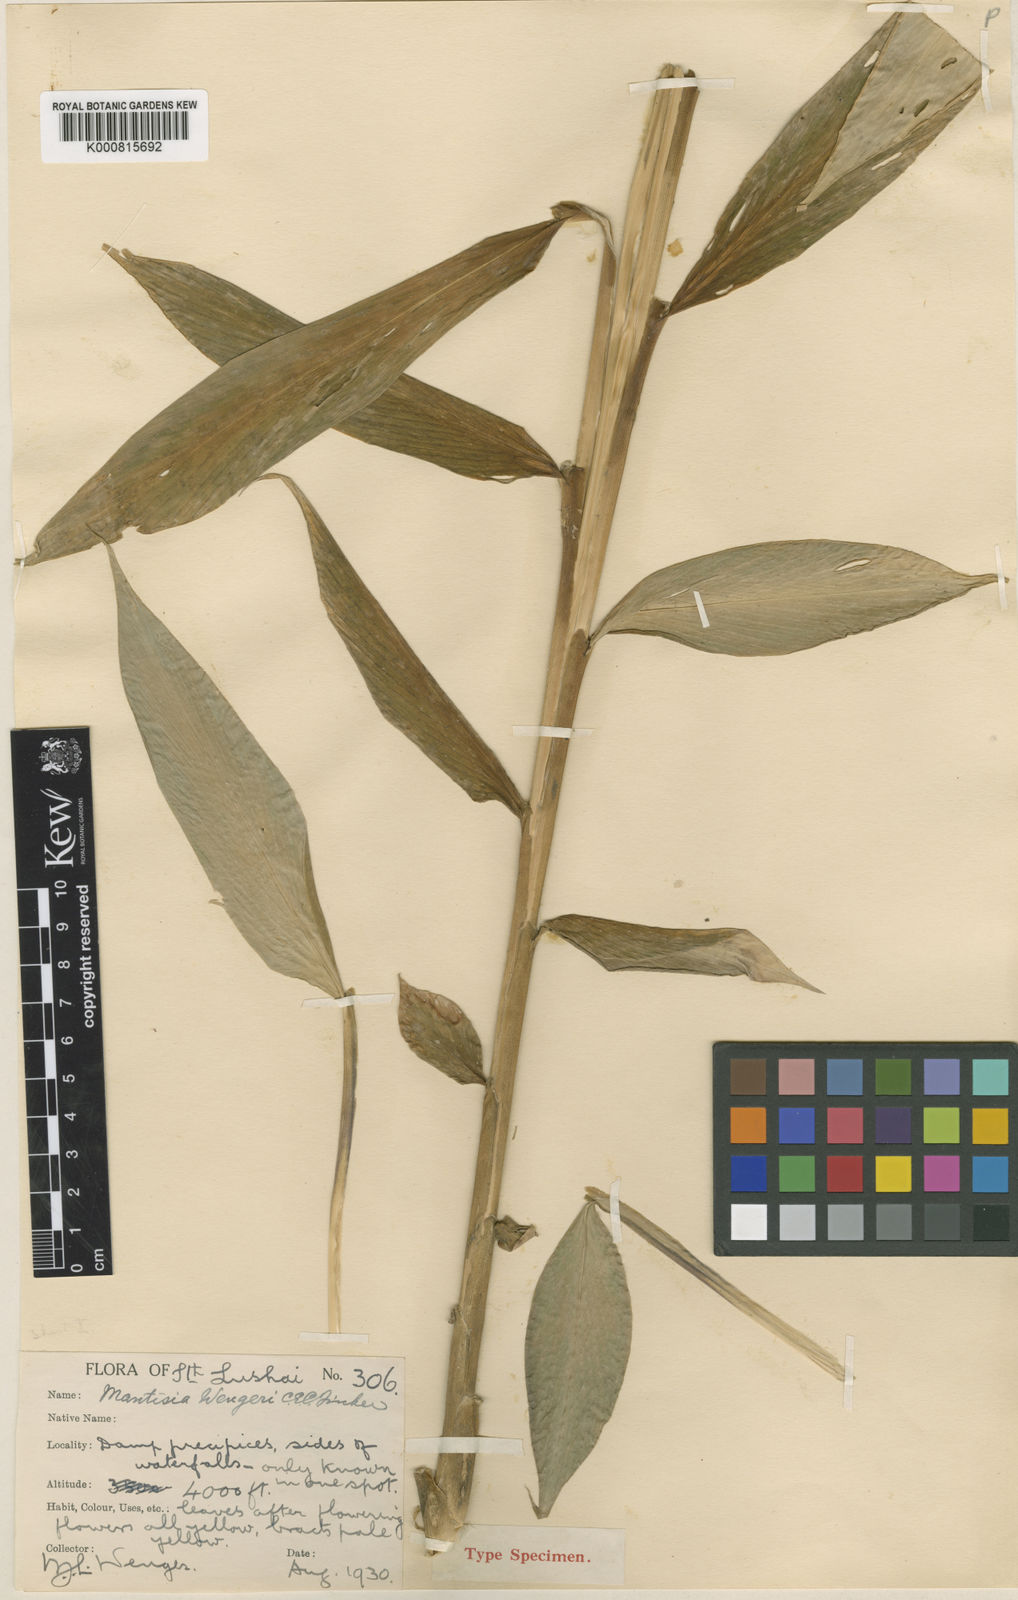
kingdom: Plantae
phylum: Tracheophyta
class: Liliopsida
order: Zingiberales
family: Zingiberaceae
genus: Globba
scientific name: Globba wengeri
